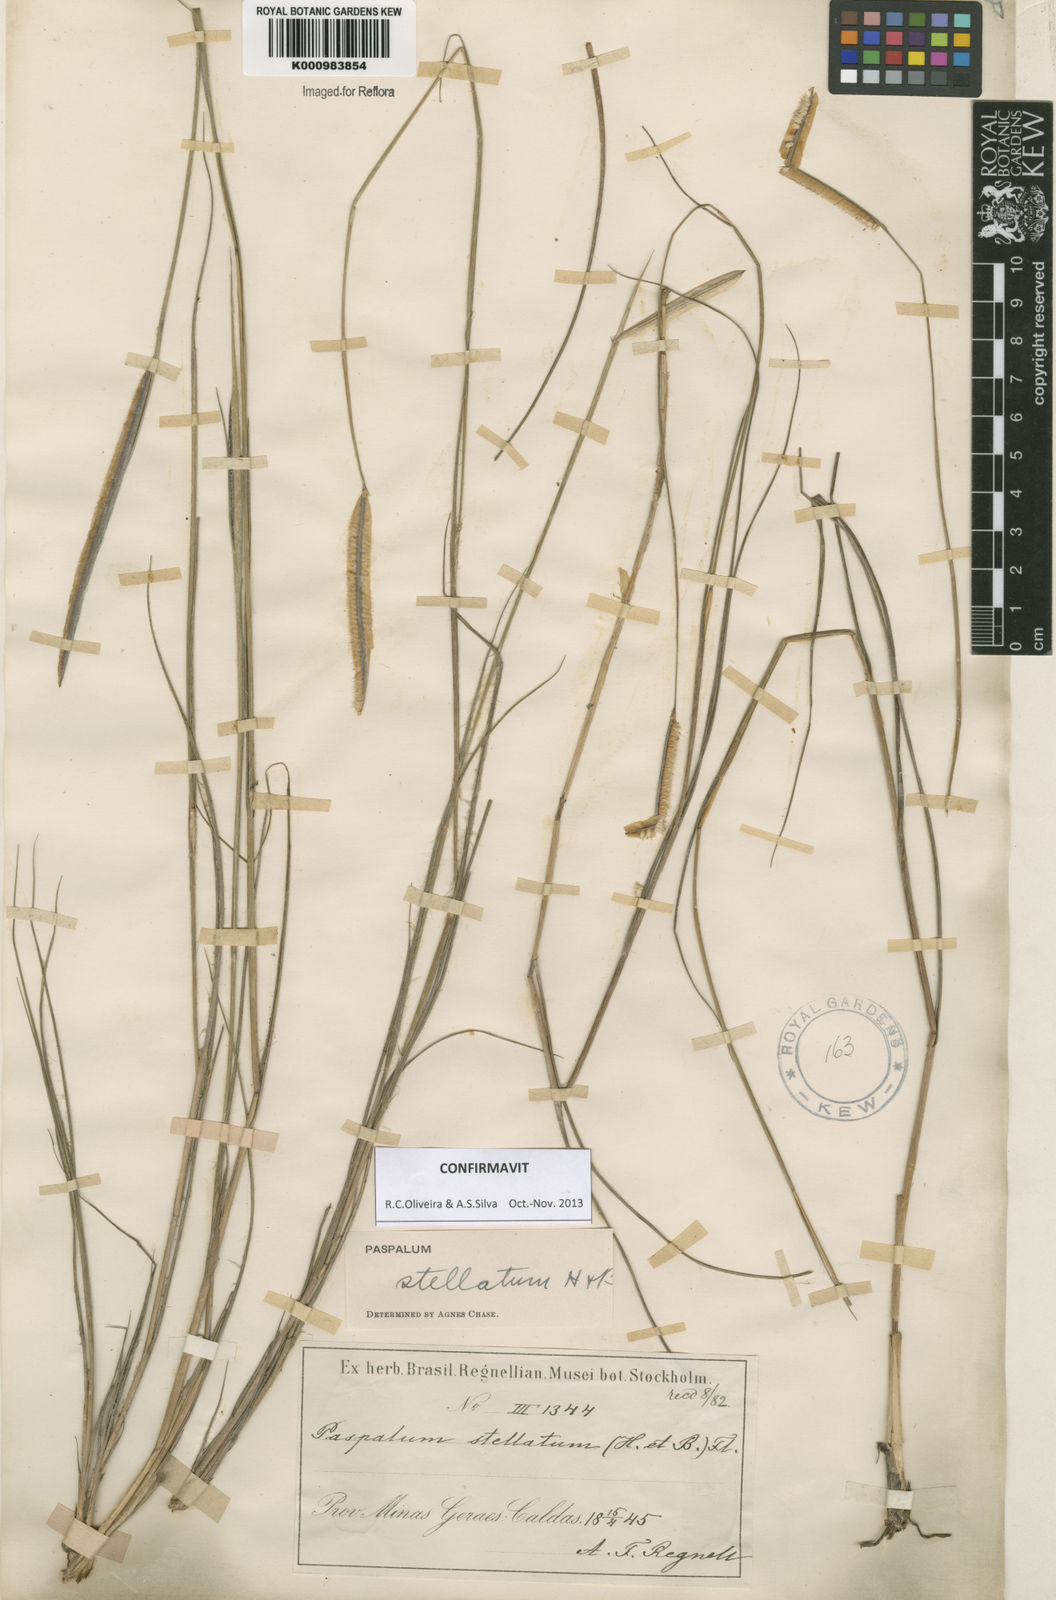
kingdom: Plantae
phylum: Tracheophyta
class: Liliopsida
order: Poales
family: Poaceae
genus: Paspalum
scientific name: Paspalum
